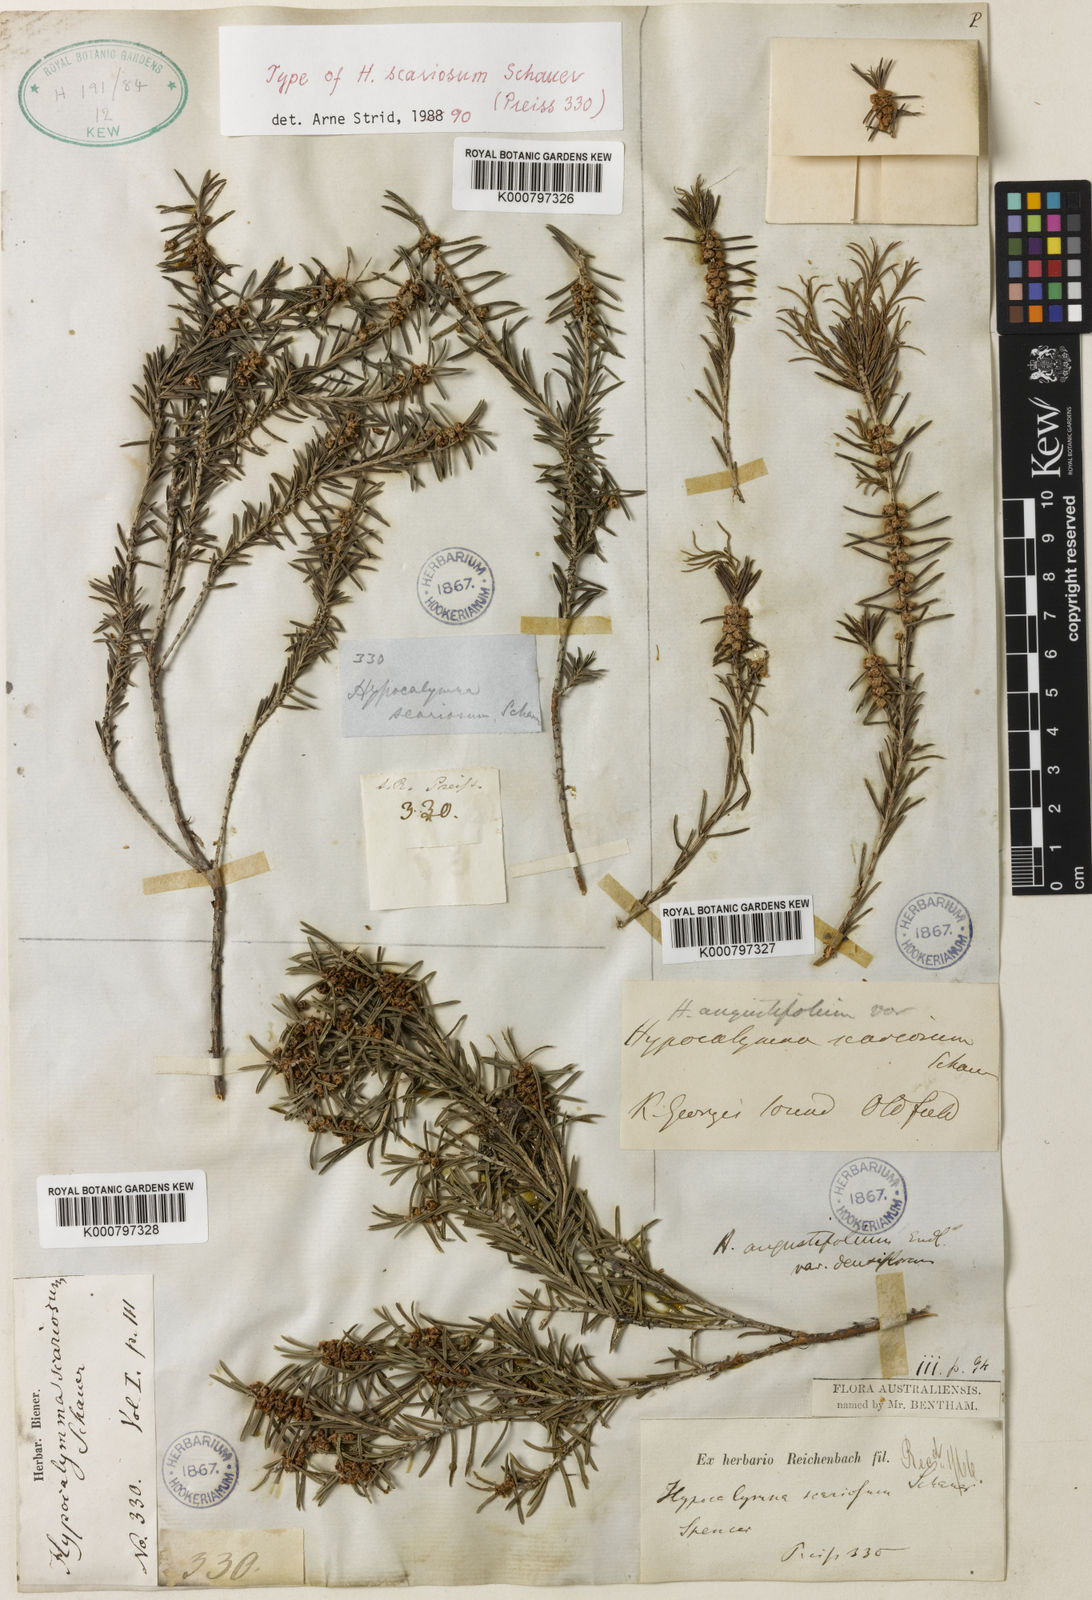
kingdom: Plantae
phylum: Tracheophyta
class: Magnoliopsida
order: Myrtales
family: Myrtaceae
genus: Hypocalymma
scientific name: Hypocalymma angustifolium
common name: White myrtle
